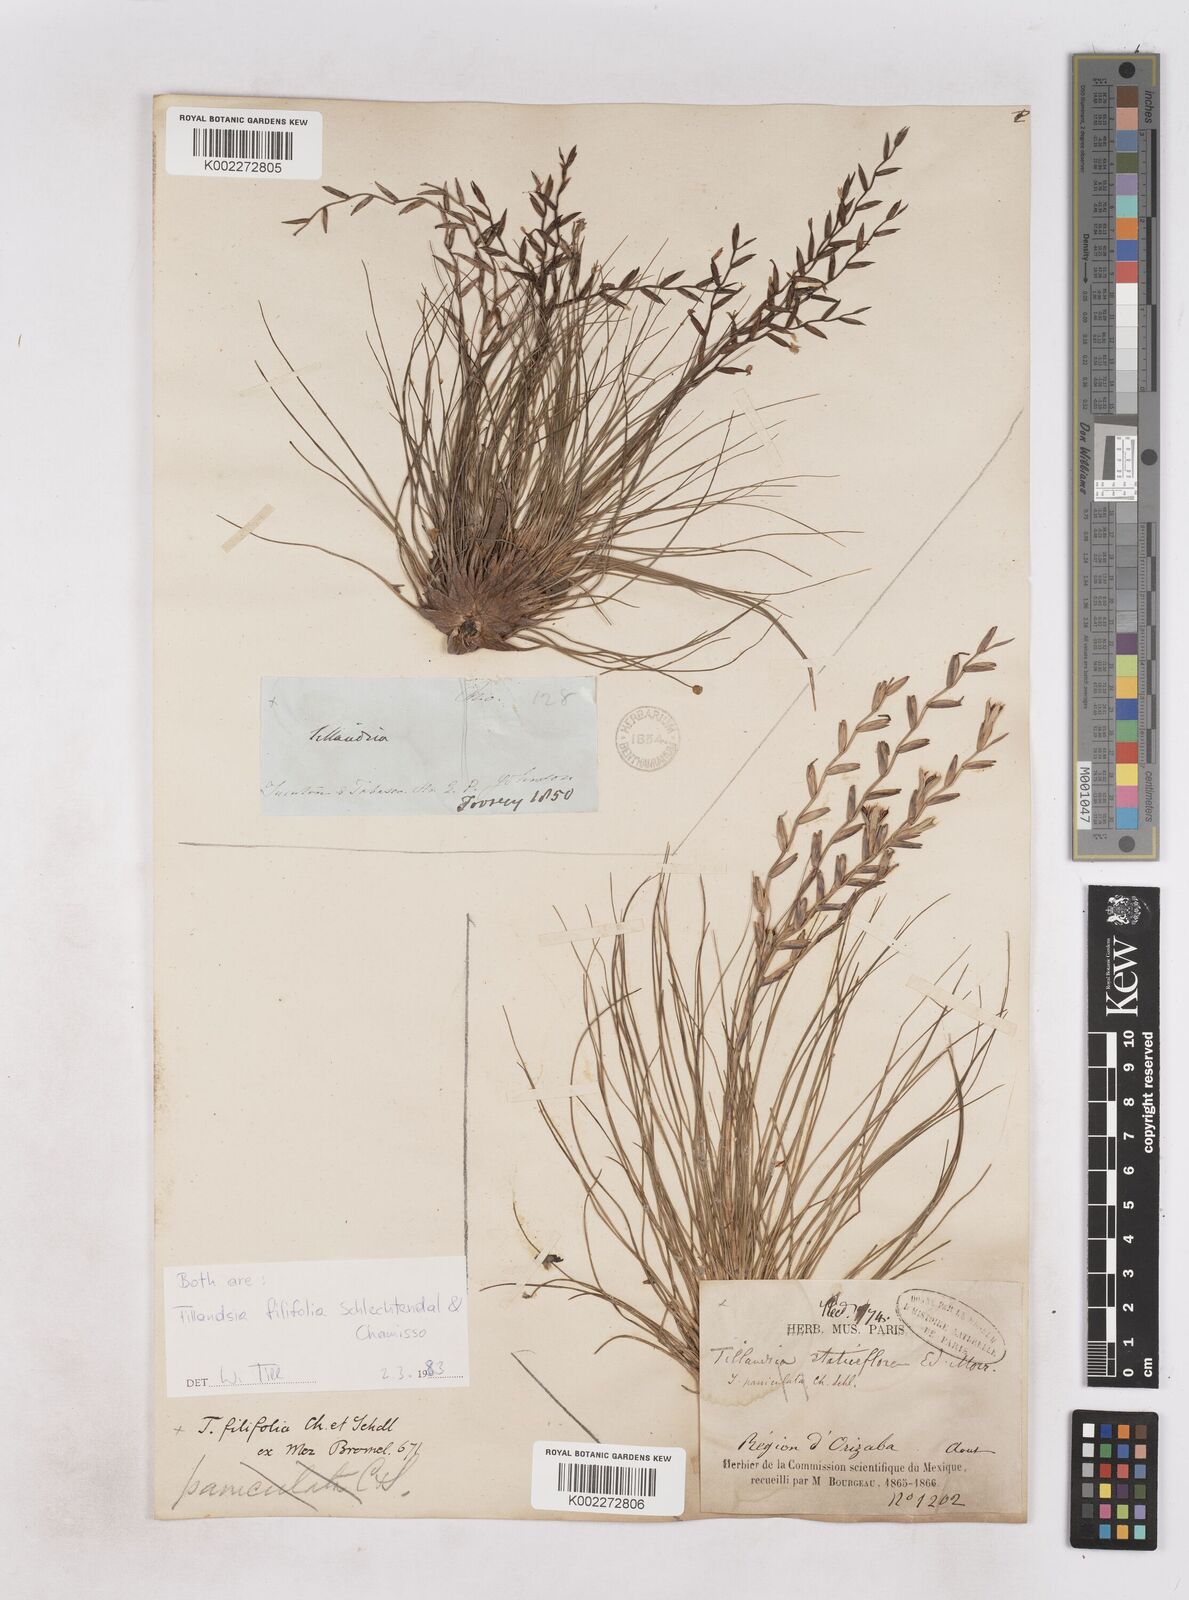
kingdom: Plantae
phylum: Tracheophyta
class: Liliopsida
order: Poales
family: Bromeliaceae
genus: Tillandsia
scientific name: Tillandsia filifolia
